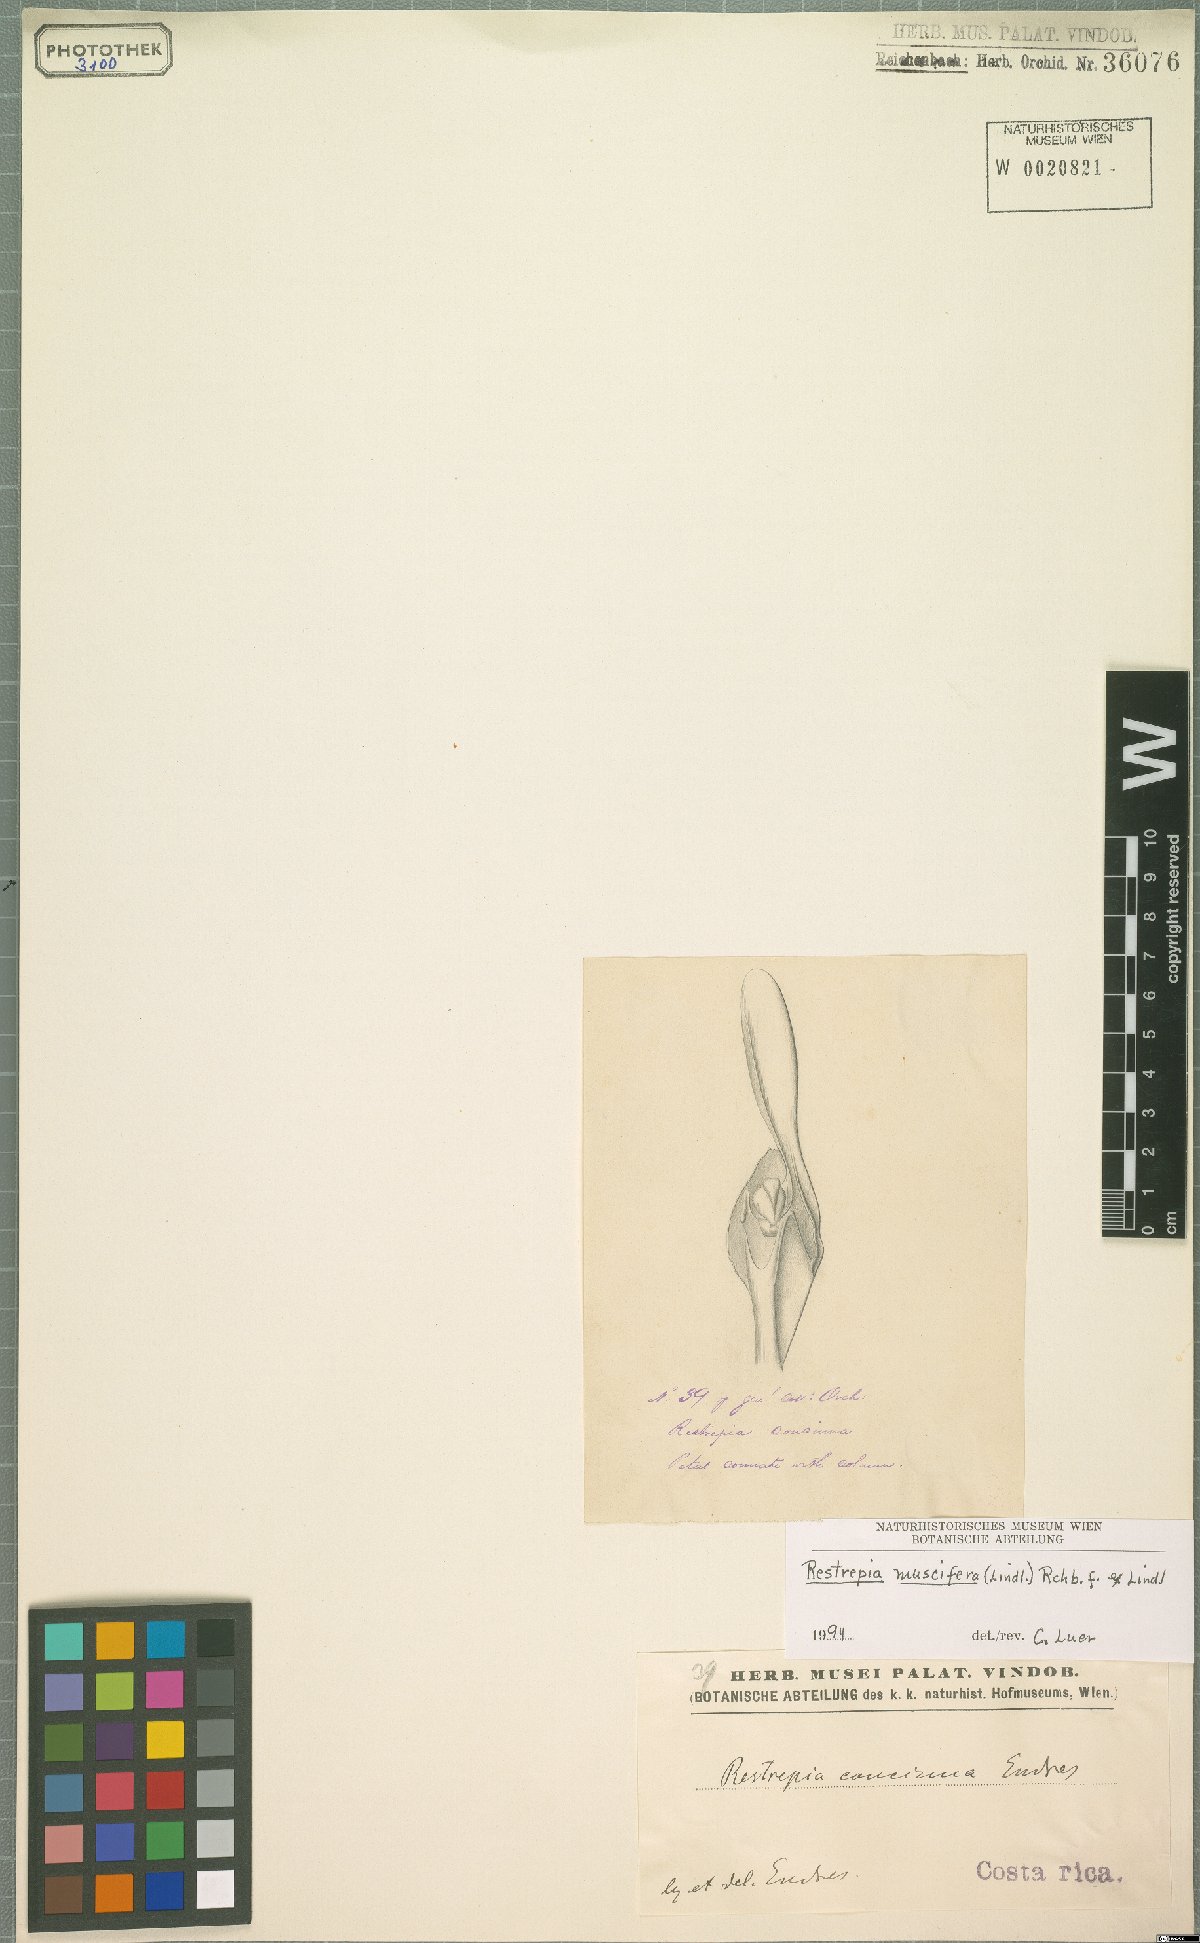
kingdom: Plantae
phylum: Tracheophyta
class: Liliopsida
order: Asparagales
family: Orchidaceae
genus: Restrepia
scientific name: Restrepia muscifera
